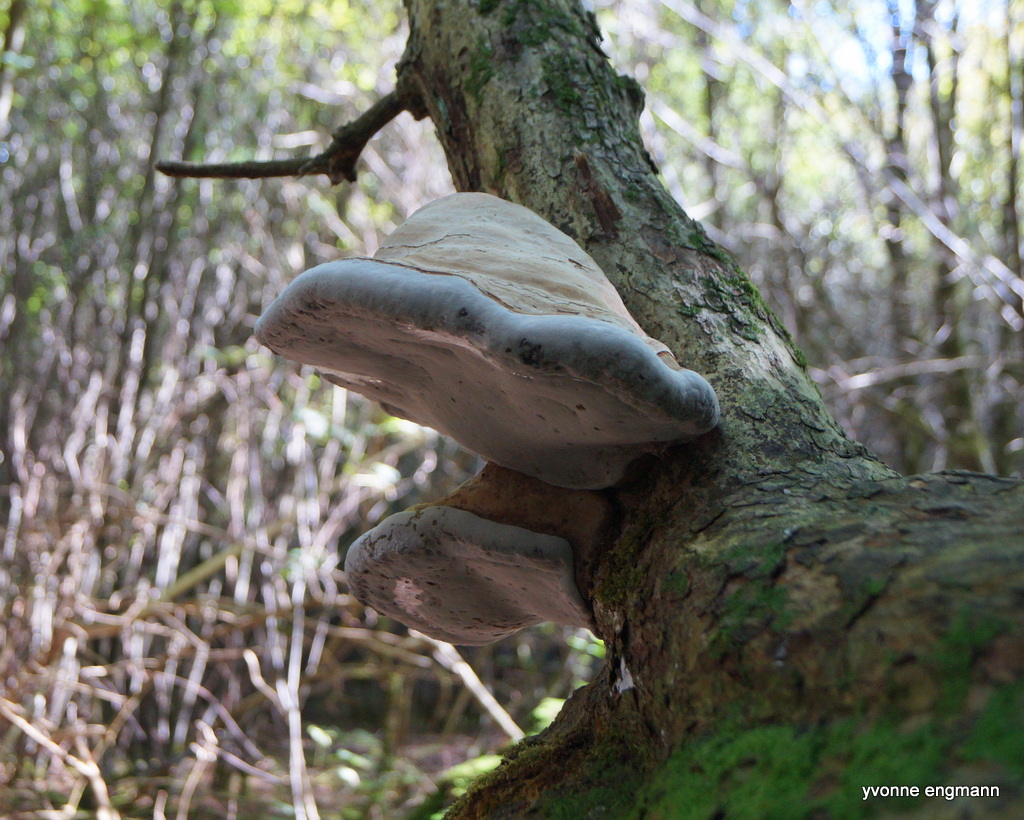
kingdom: Fungi
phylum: Basidiomycota
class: Agaricomycetes
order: Polyporales
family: Polyporaceae
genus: Fomes
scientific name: Fomes fomentarius
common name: tøndersvamp
